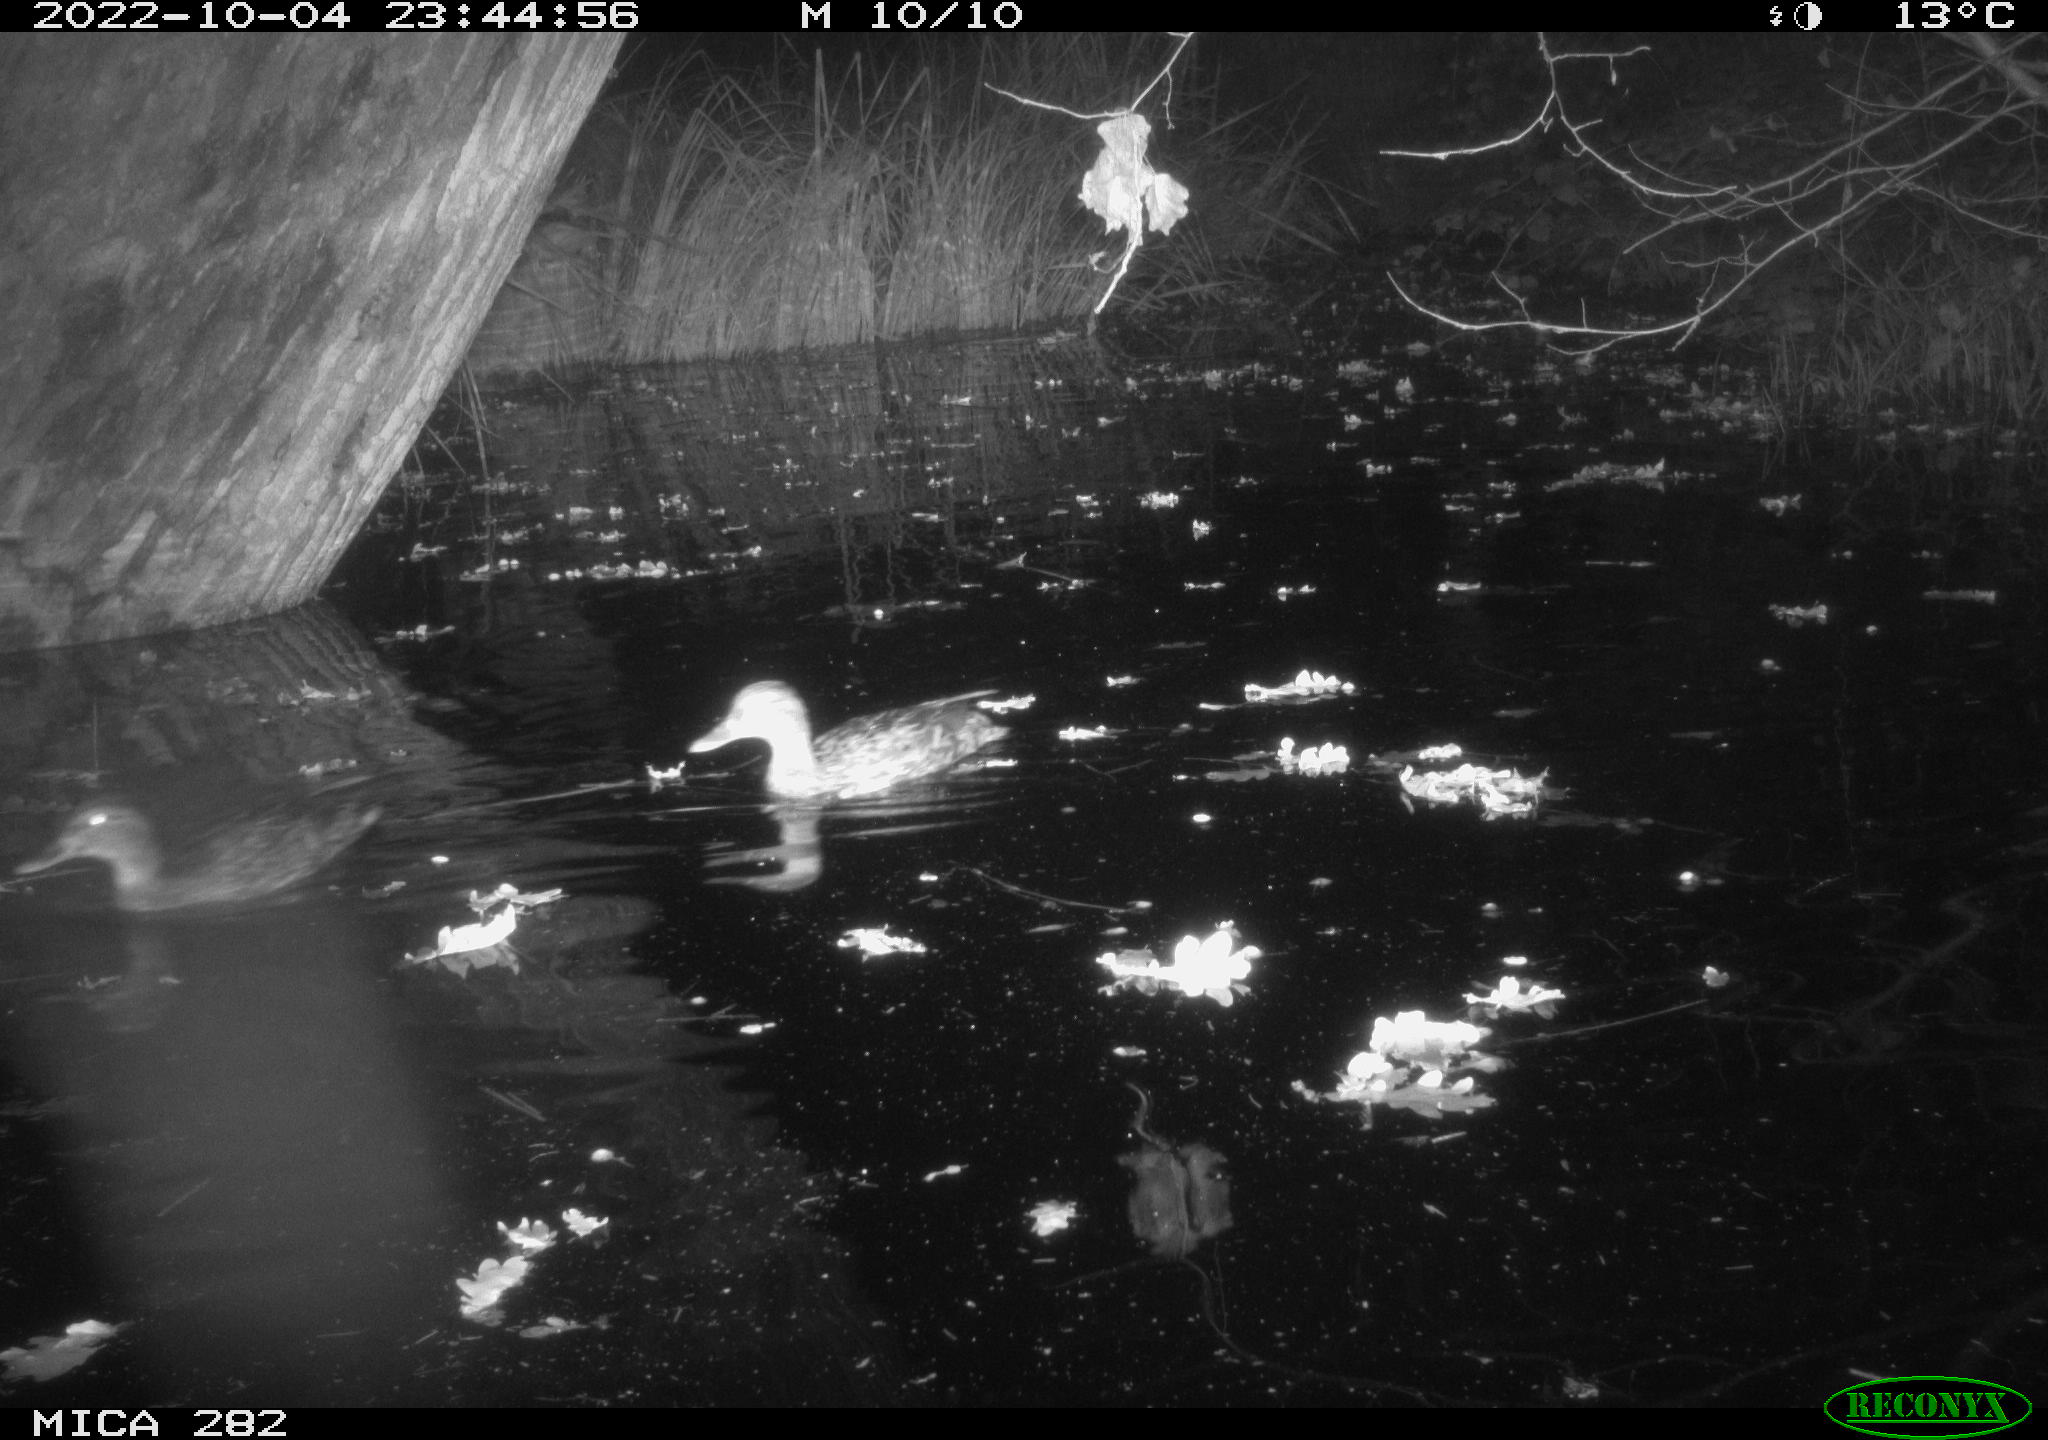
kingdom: Animalia
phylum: Chordata
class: Aves
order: Anseriformes
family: Anatidae
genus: Anas
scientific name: Anas
